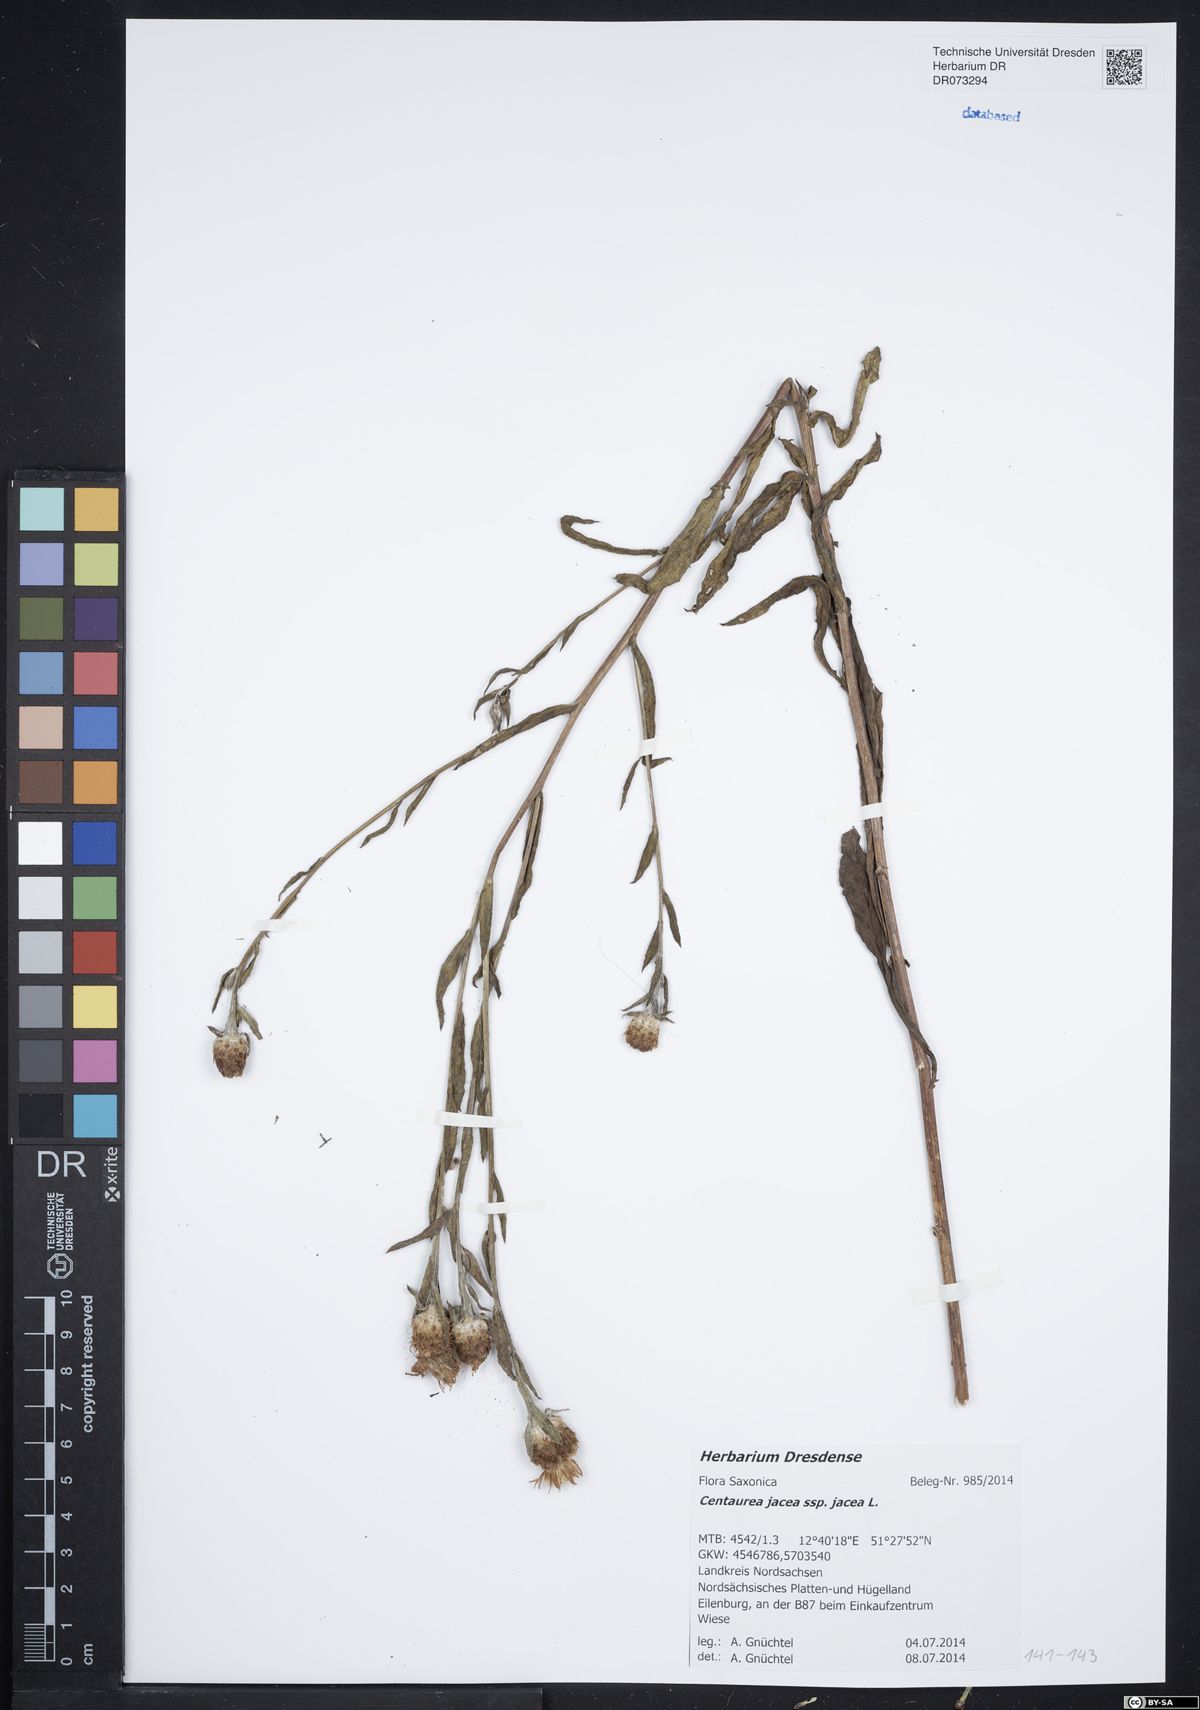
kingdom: Plantae
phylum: Tracheophyta
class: Magnoliopsida
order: Asterales
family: Asteraceae
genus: Centaurea
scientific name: Centaurea jacea
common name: Brown knapweed
